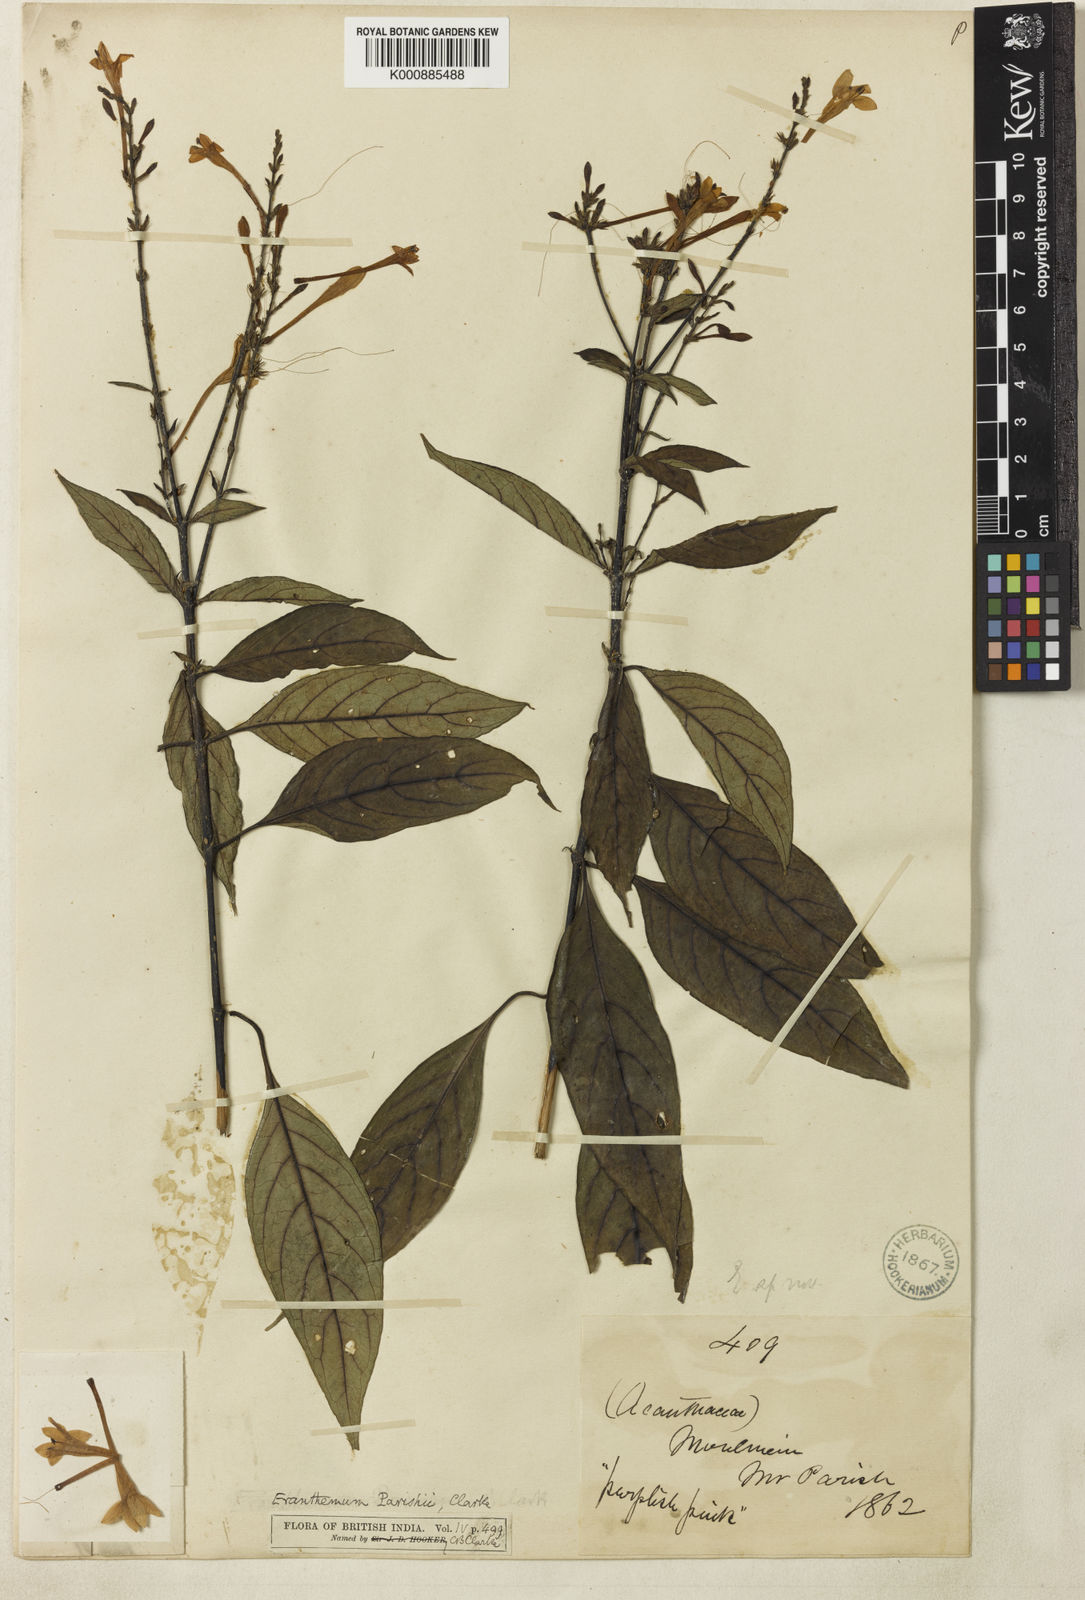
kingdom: Plantae
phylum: Tracheophyta
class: Magnoliopsida
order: Lamiales
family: Acanthaceae
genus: Pseuderanthemum
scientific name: Pseuderanthemum parishii
